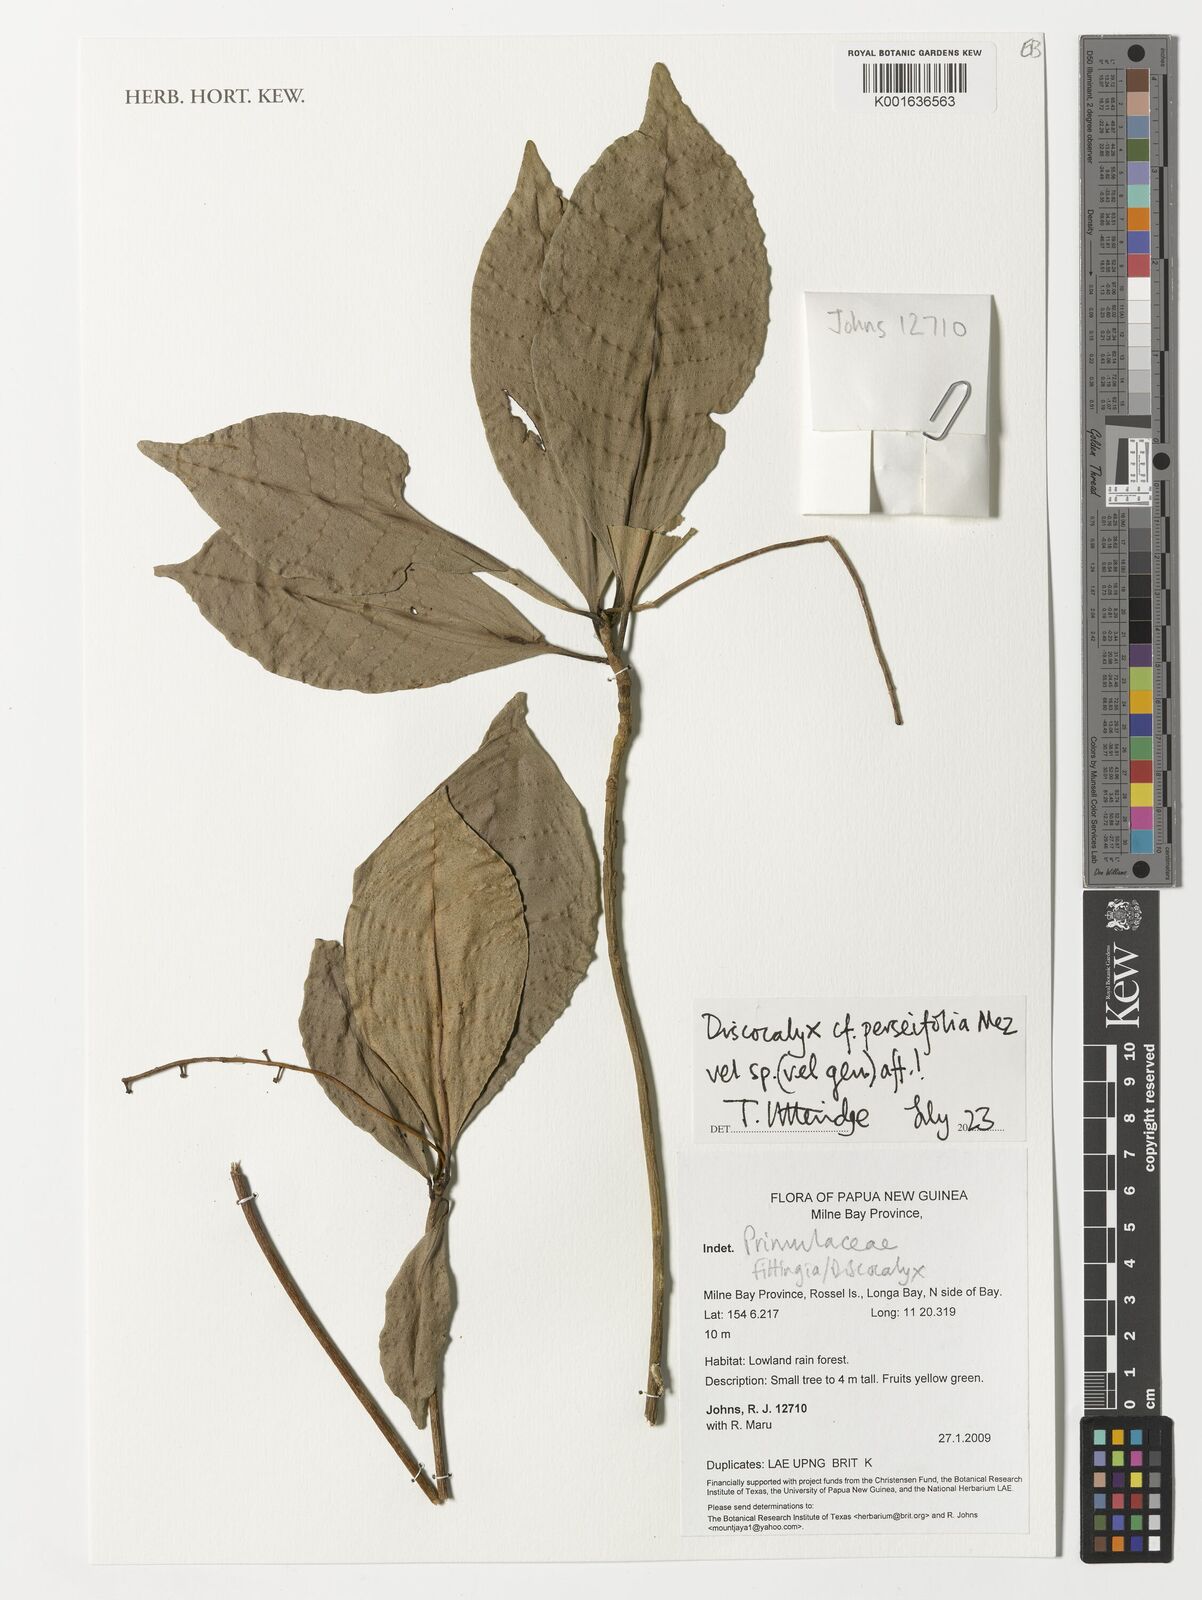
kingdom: Plantae
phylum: Tracheophyta
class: Magnoliopsida
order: Ericales
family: Primulaceae
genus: Discocalyx
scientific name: Discocalyx perseifolia
